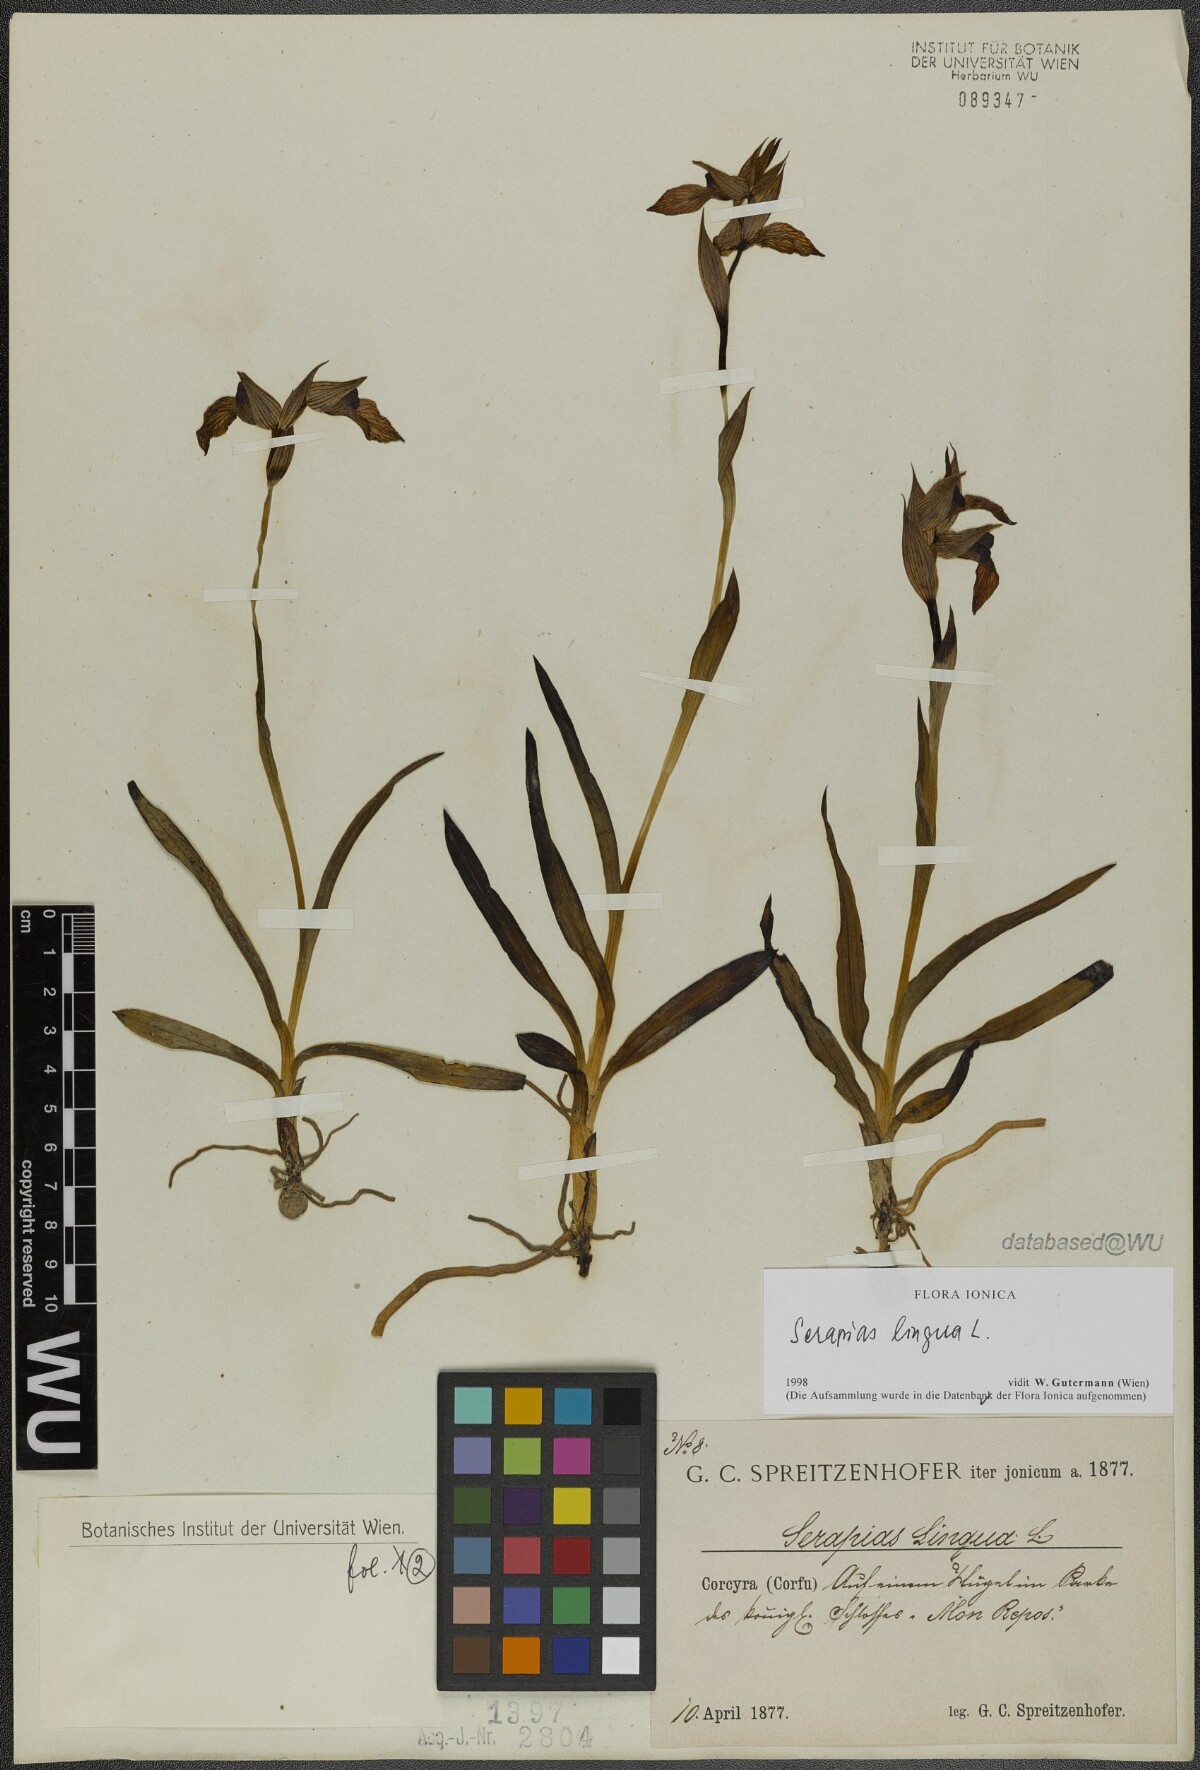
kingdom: Plantae
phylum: Tracheophyta
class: Liliopsida
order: Asparagales
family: Orchidaceae
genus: Serapias
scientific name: Serapias lingua
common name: Tongue-orchid
